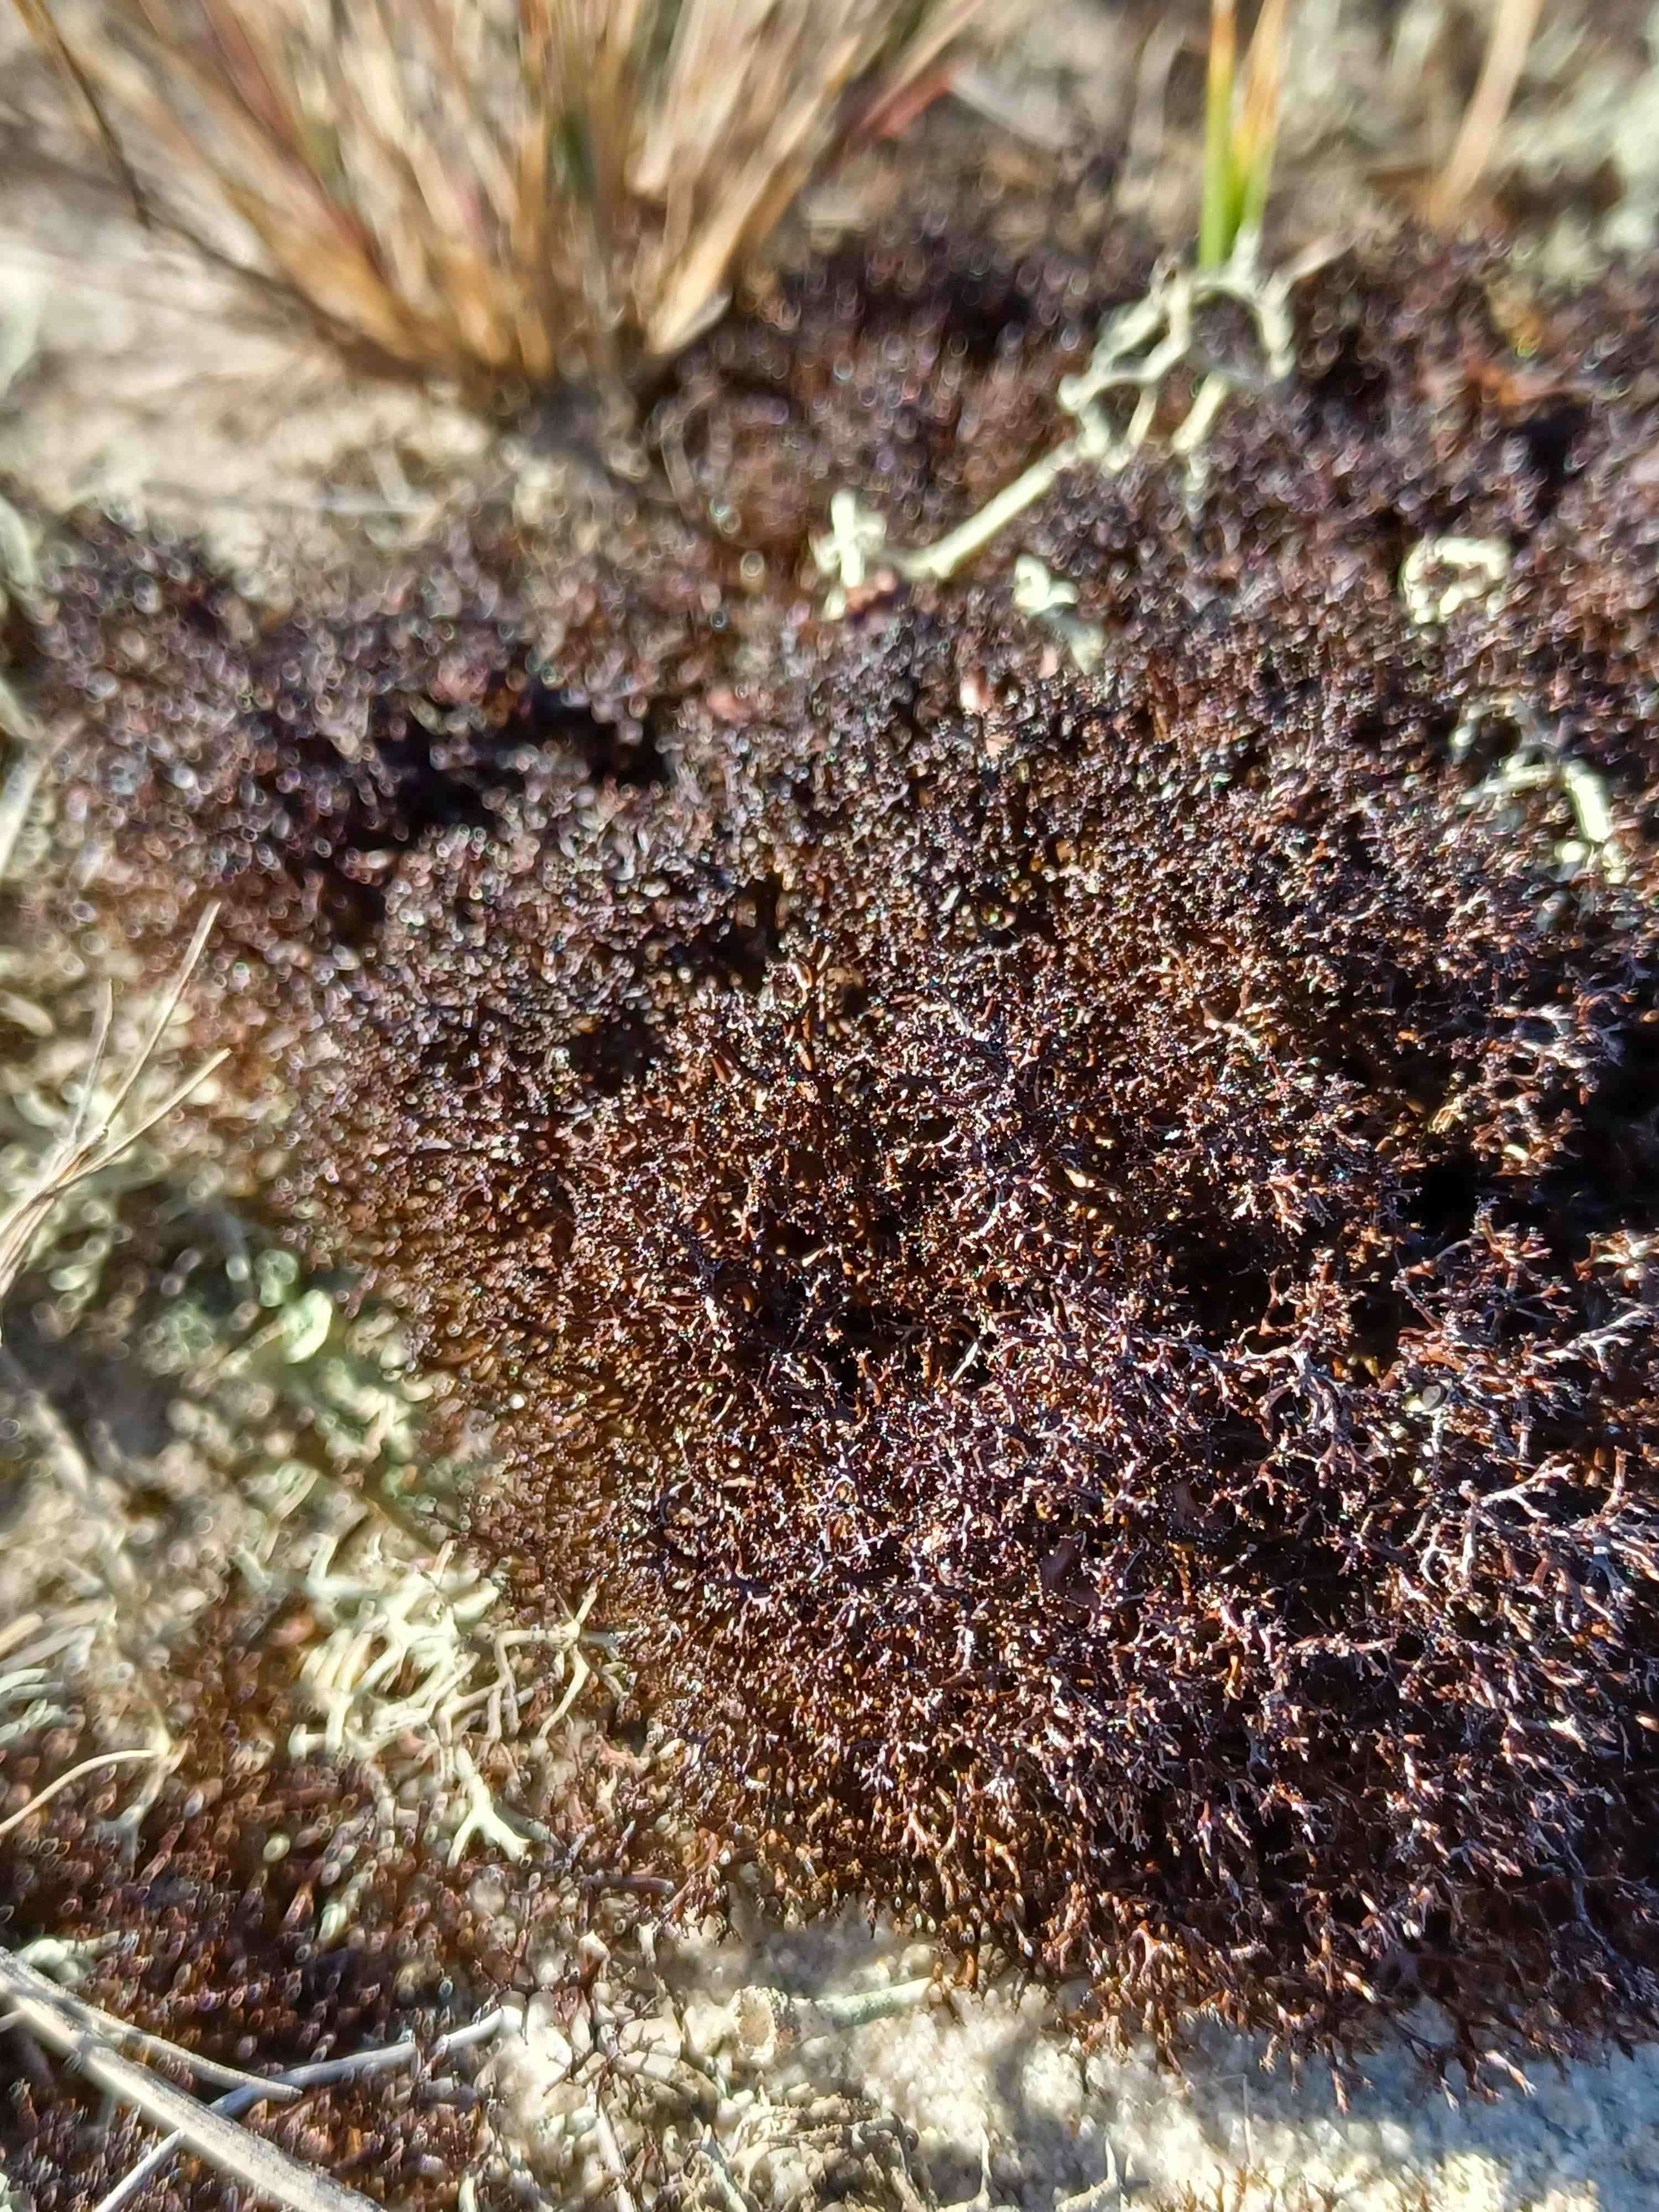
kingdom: Fungi
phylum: Ascomycota
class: Lecanoromycetes
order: Lecanorales
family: Parmeliaceae
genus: Cetraria
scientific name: Cetraria muricata
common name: tue-tjørnelav
